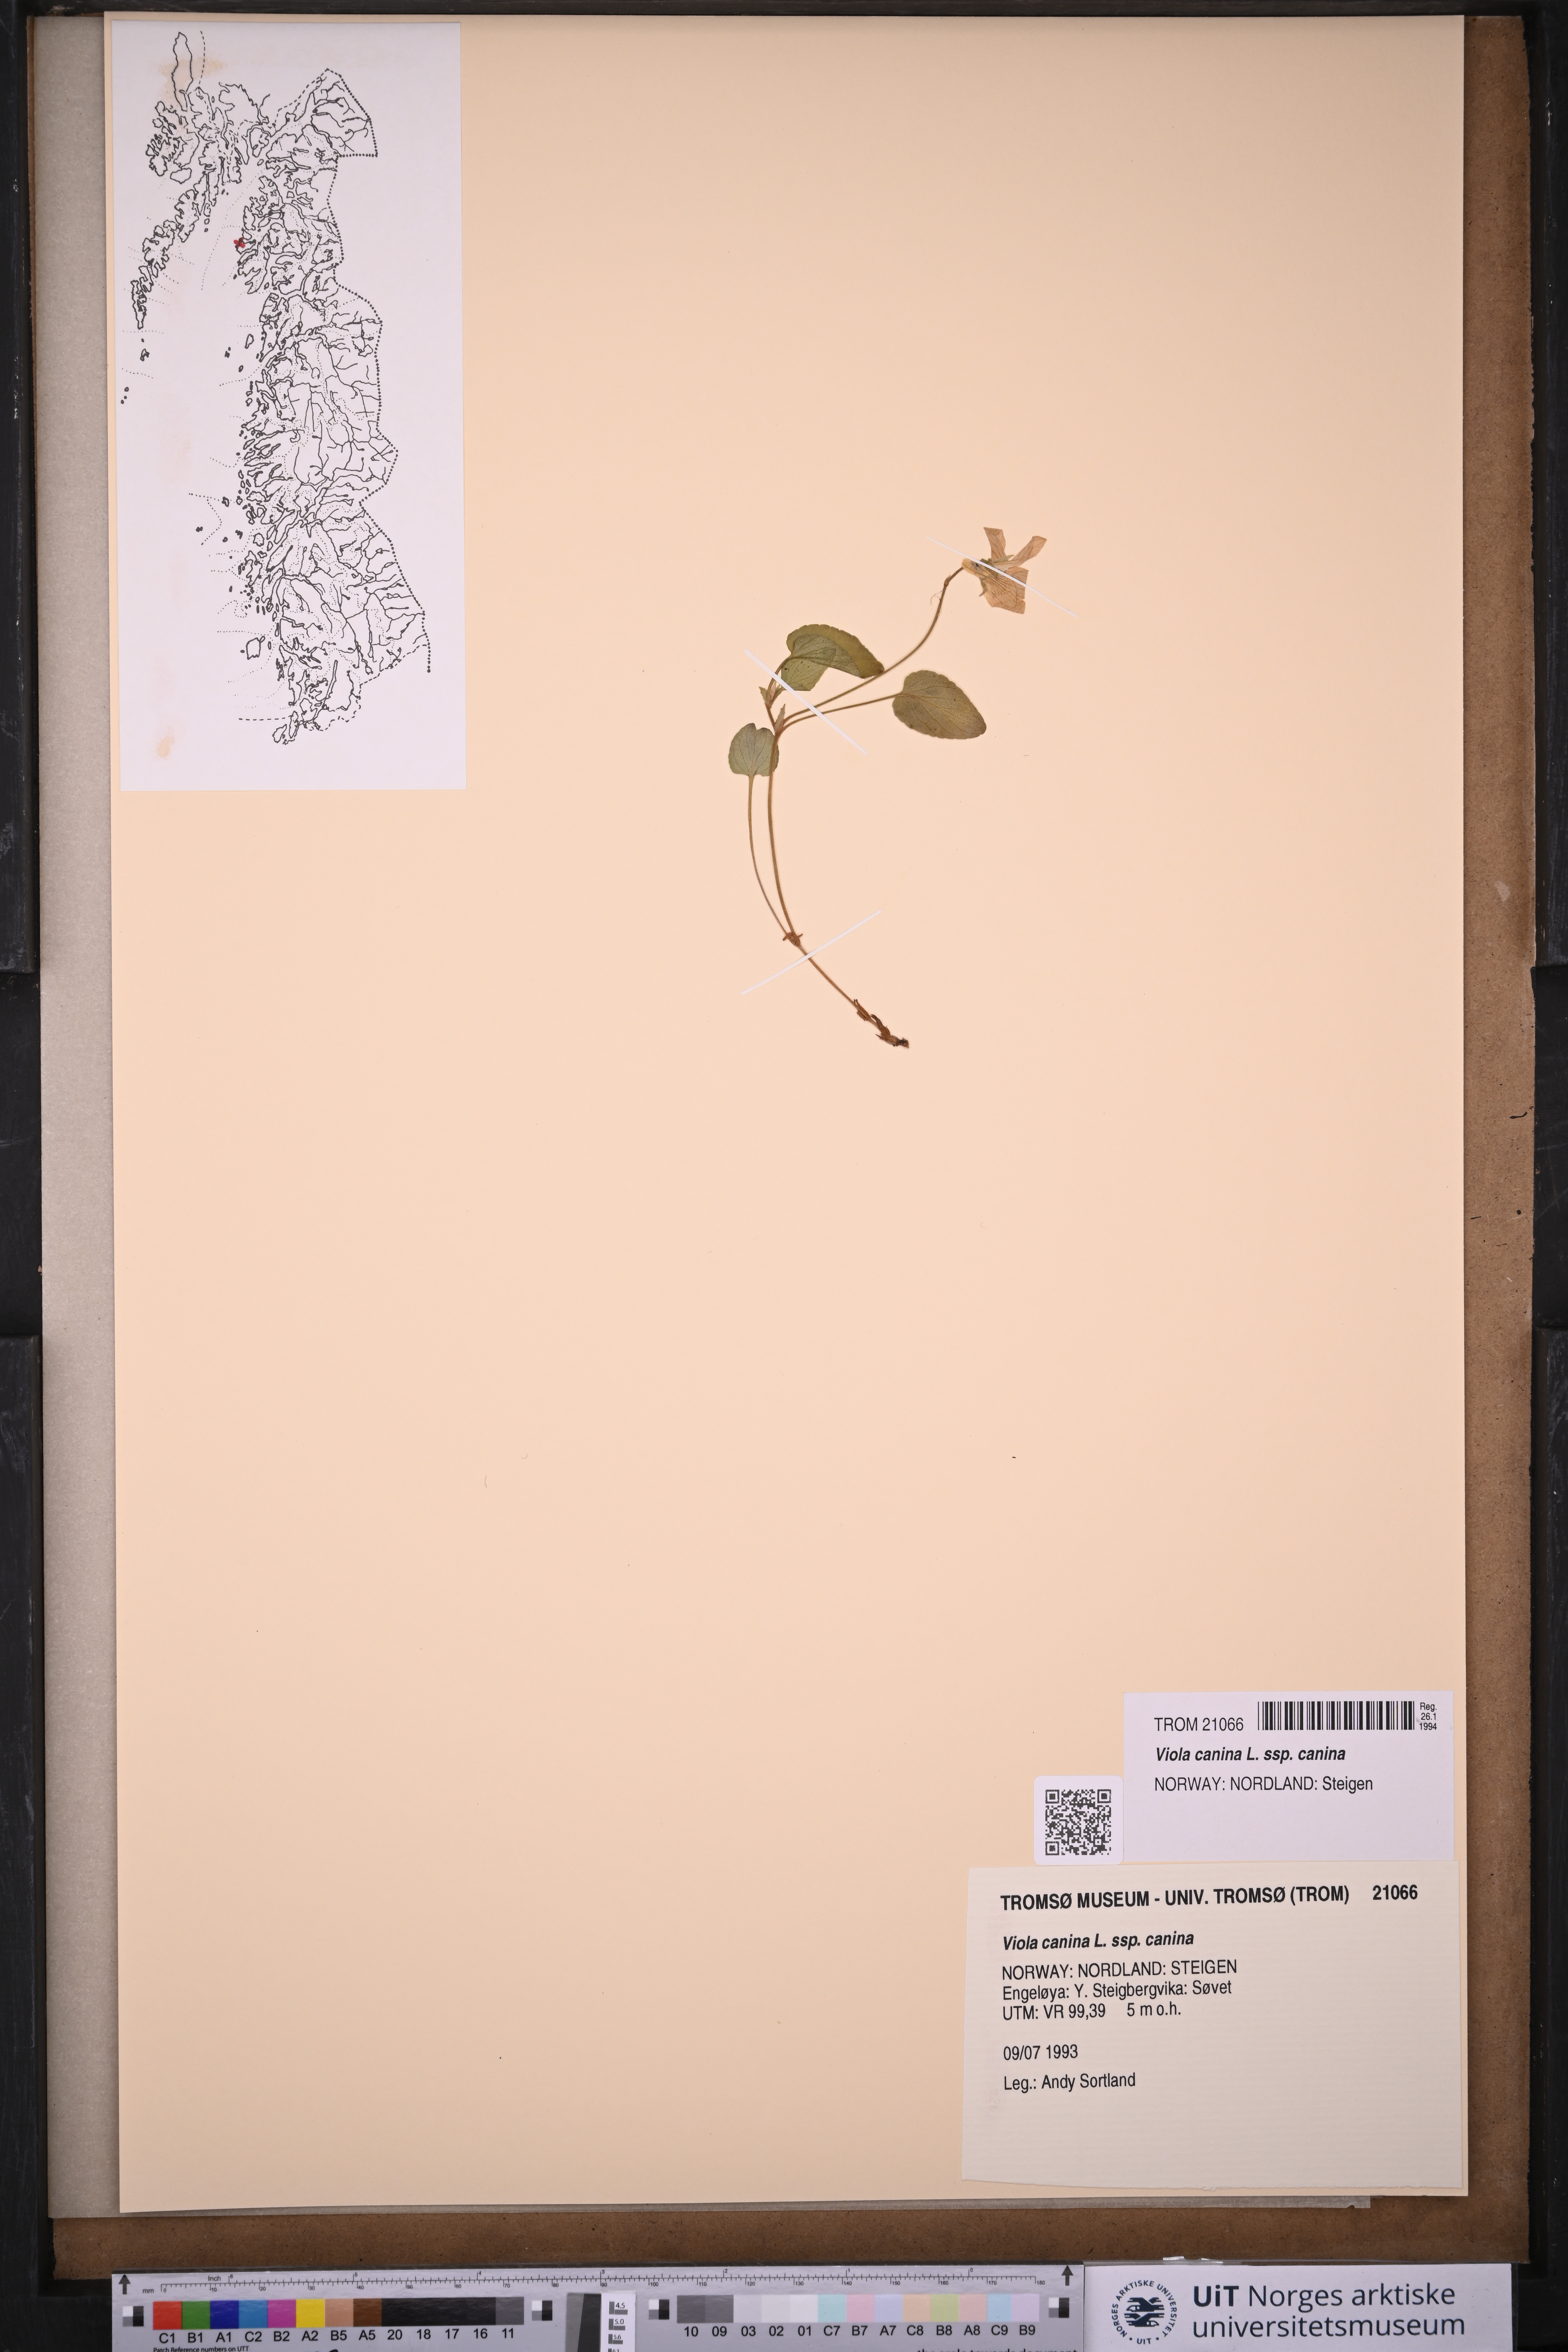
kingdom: Plantae
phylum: Tracheophyta
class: Magnoliopsida
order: Malpighiales
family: Violaceae
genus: Viola
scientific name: Viola canina
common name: Heath dog-violet
